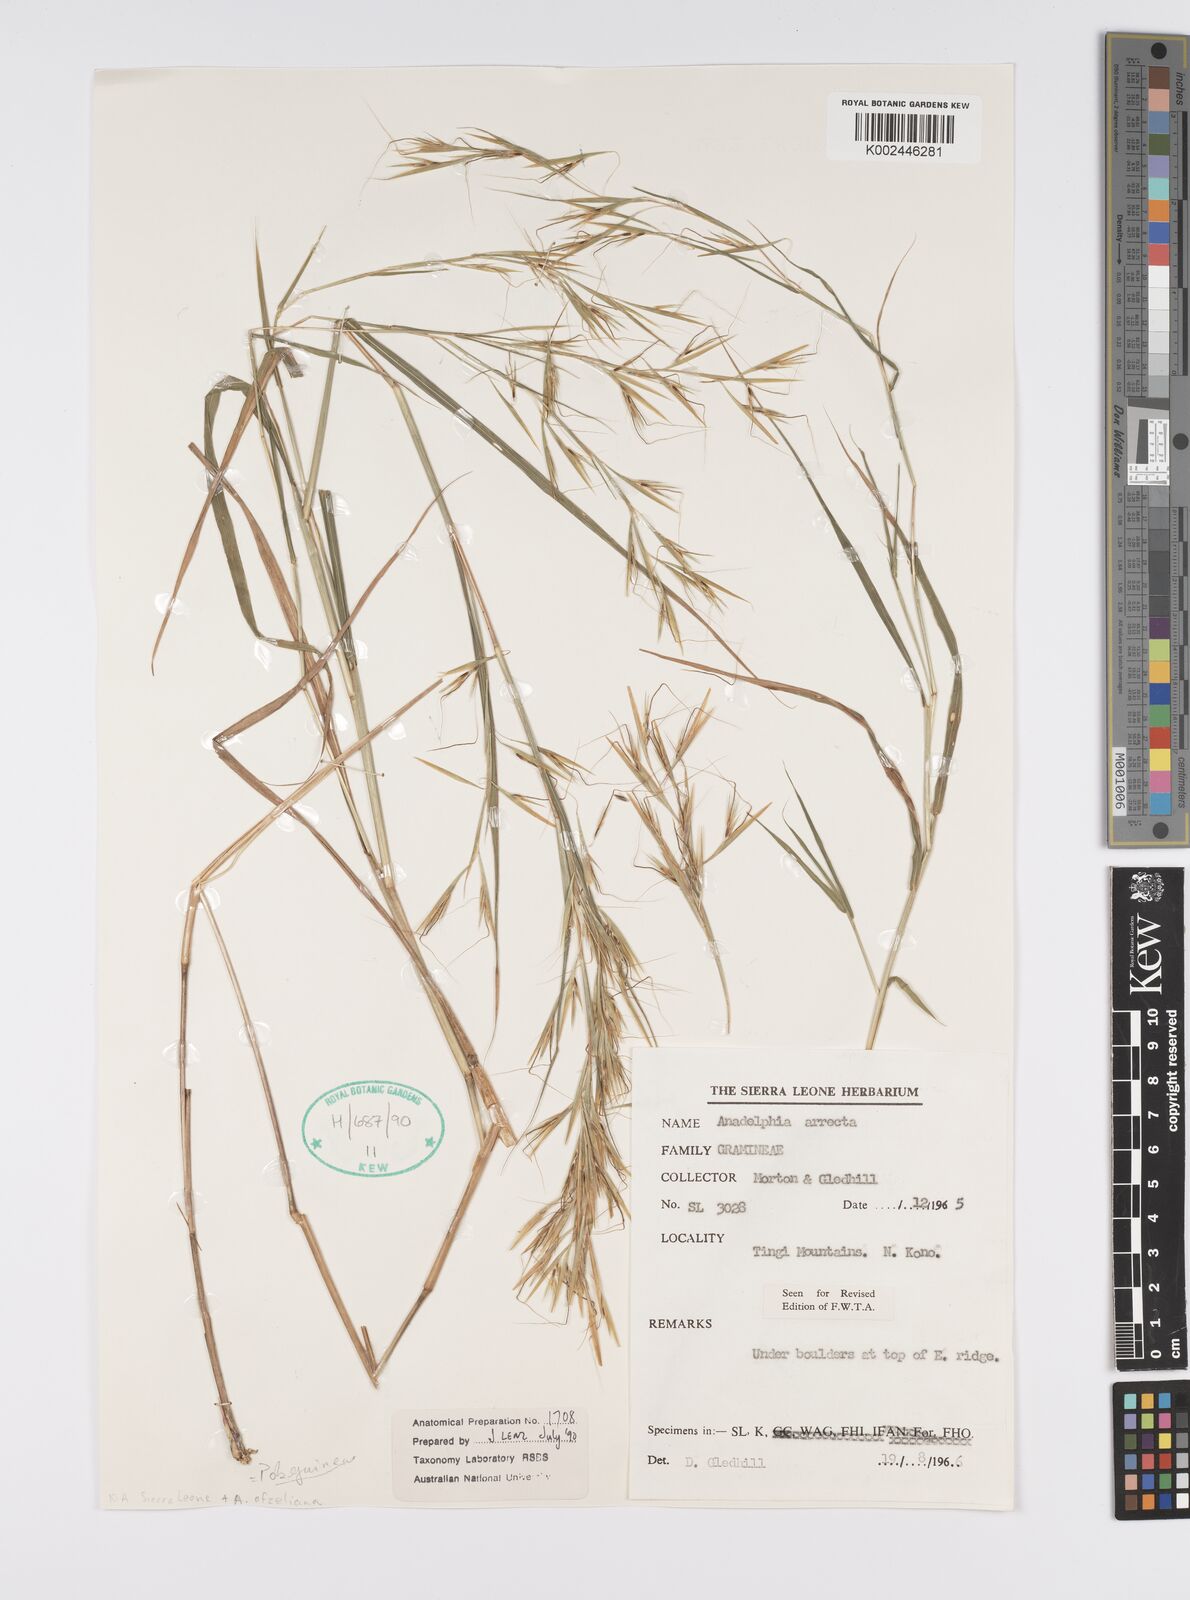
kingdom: Plantae
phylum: Tracheophyta
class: Liliopsida
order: Poales
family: Poaceae
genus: Anadelphia
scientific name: Anadelphia afzeliana
